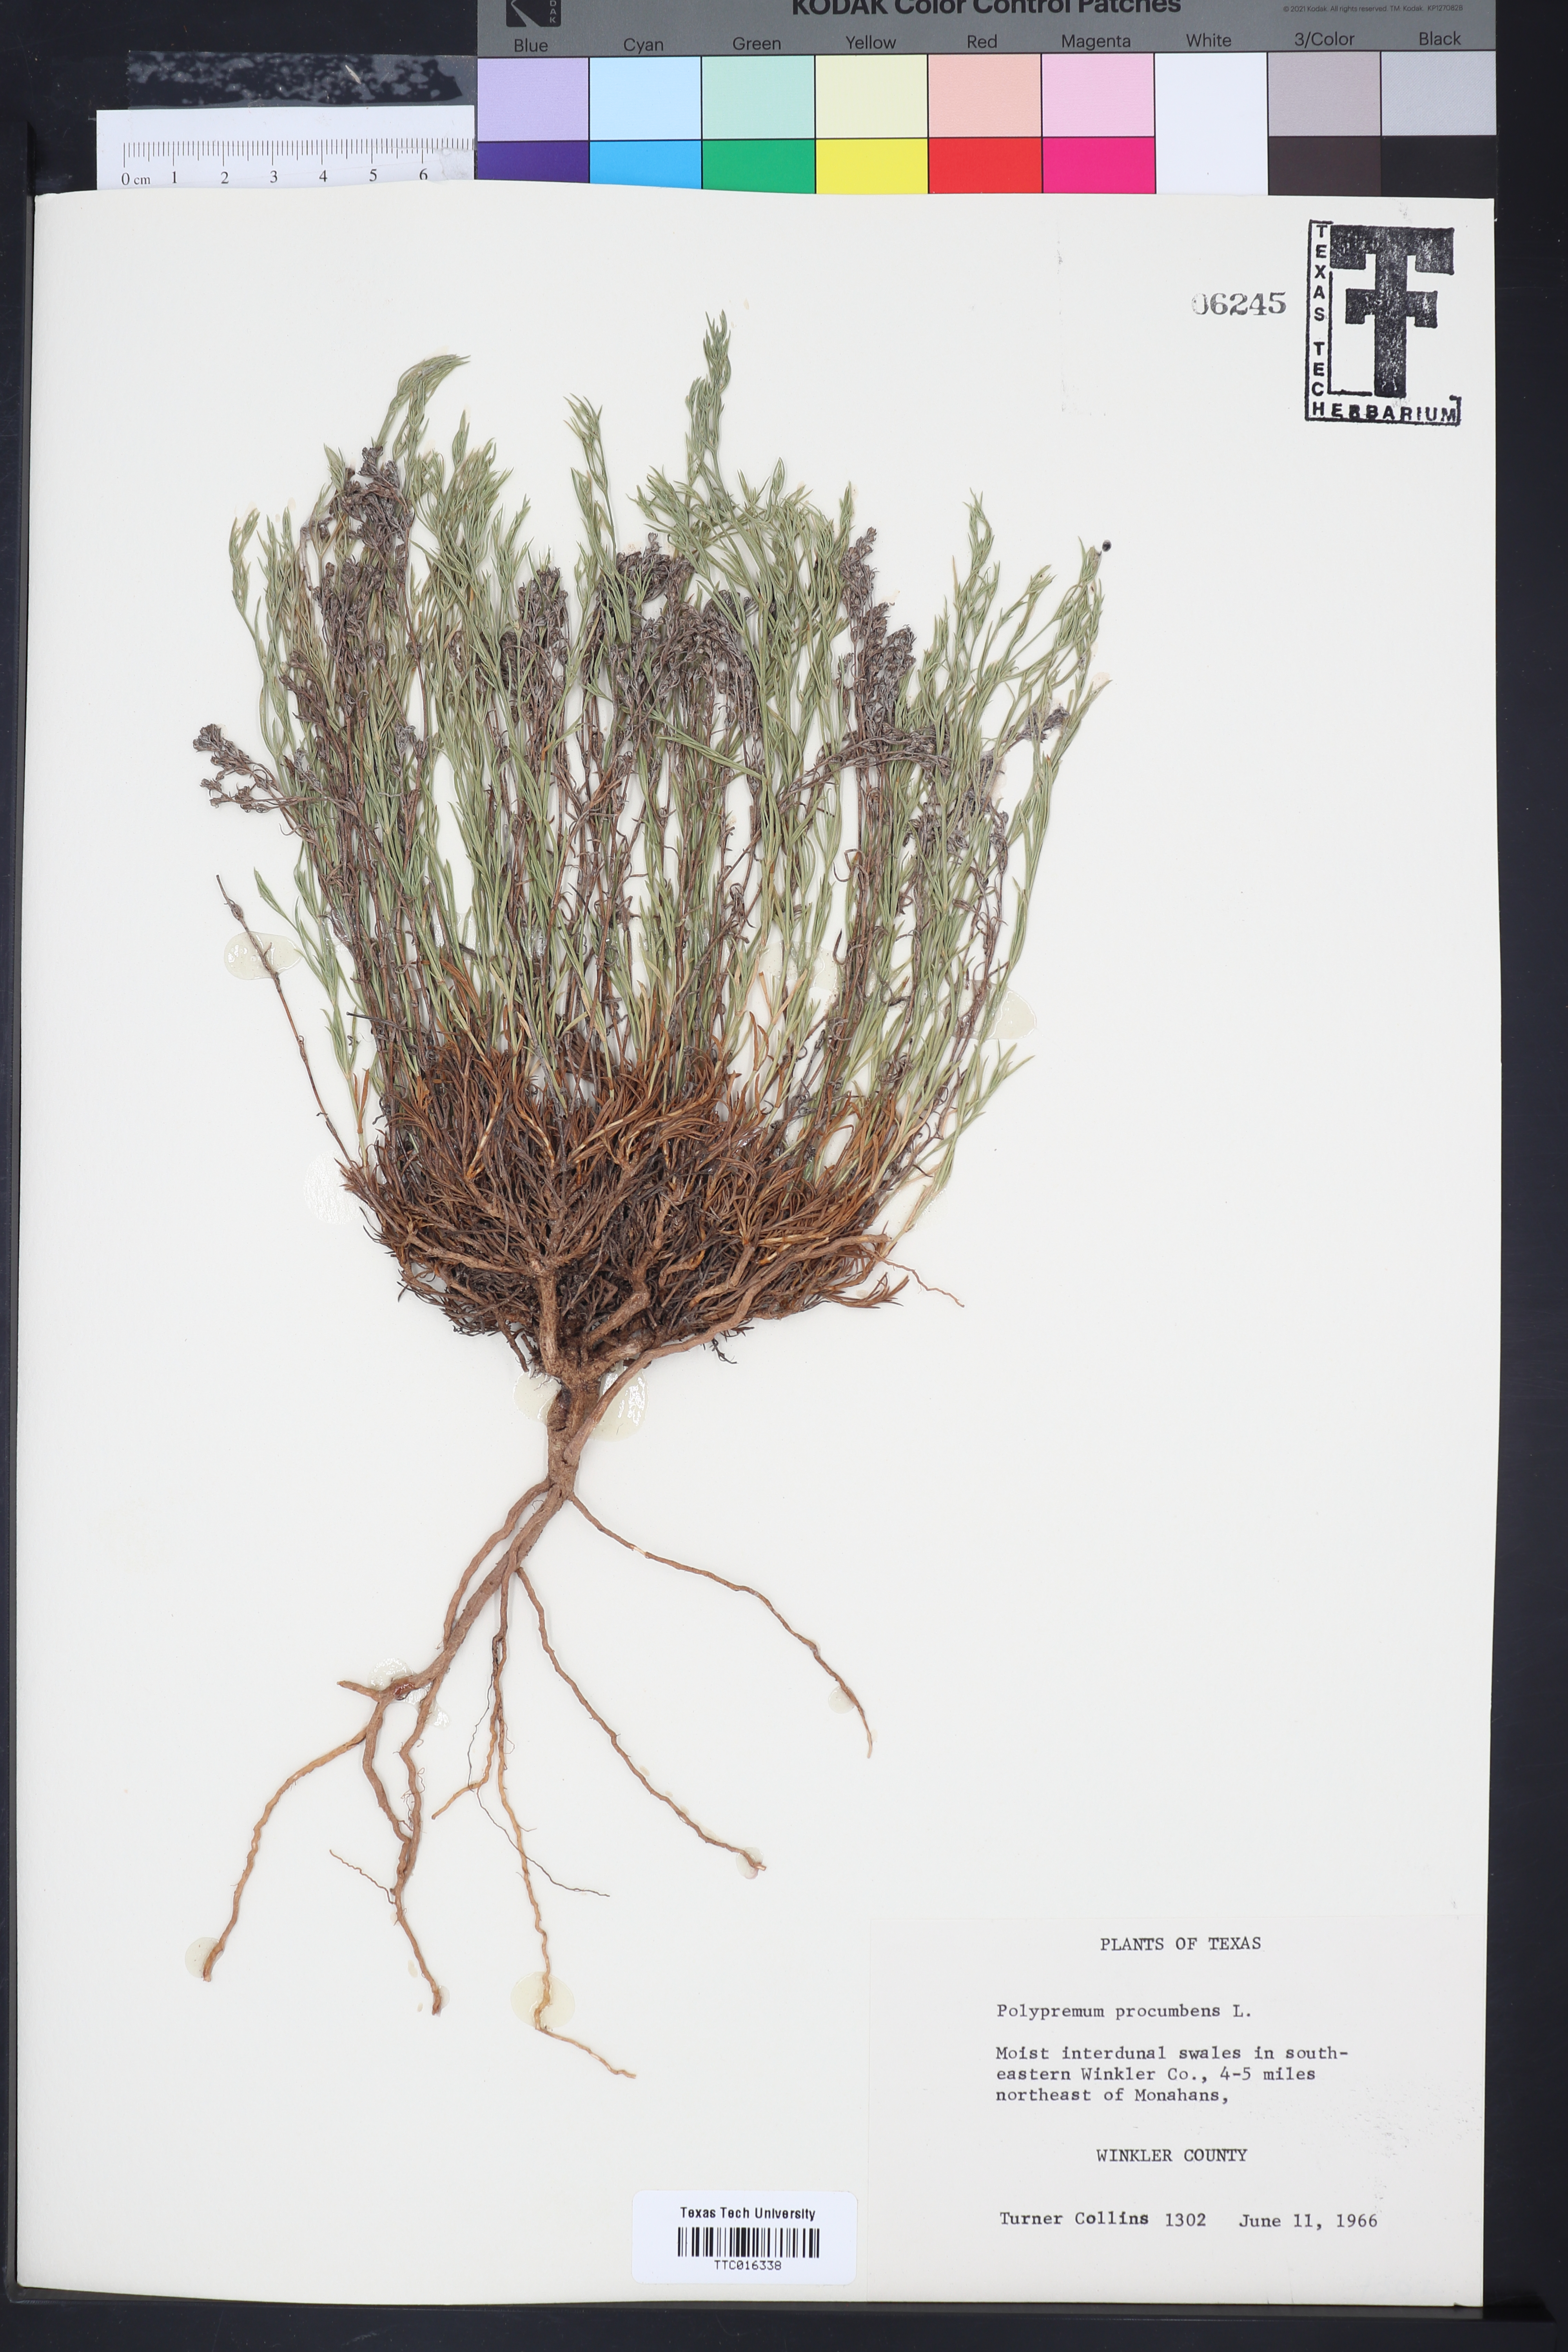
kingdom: Plantae
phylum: Tracheophyta
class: Magnoliopsida
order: Lamiales
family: Tetrachondraceae
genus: Polypremum
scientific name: Polypremum procumbens
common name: Juniper-leaf
